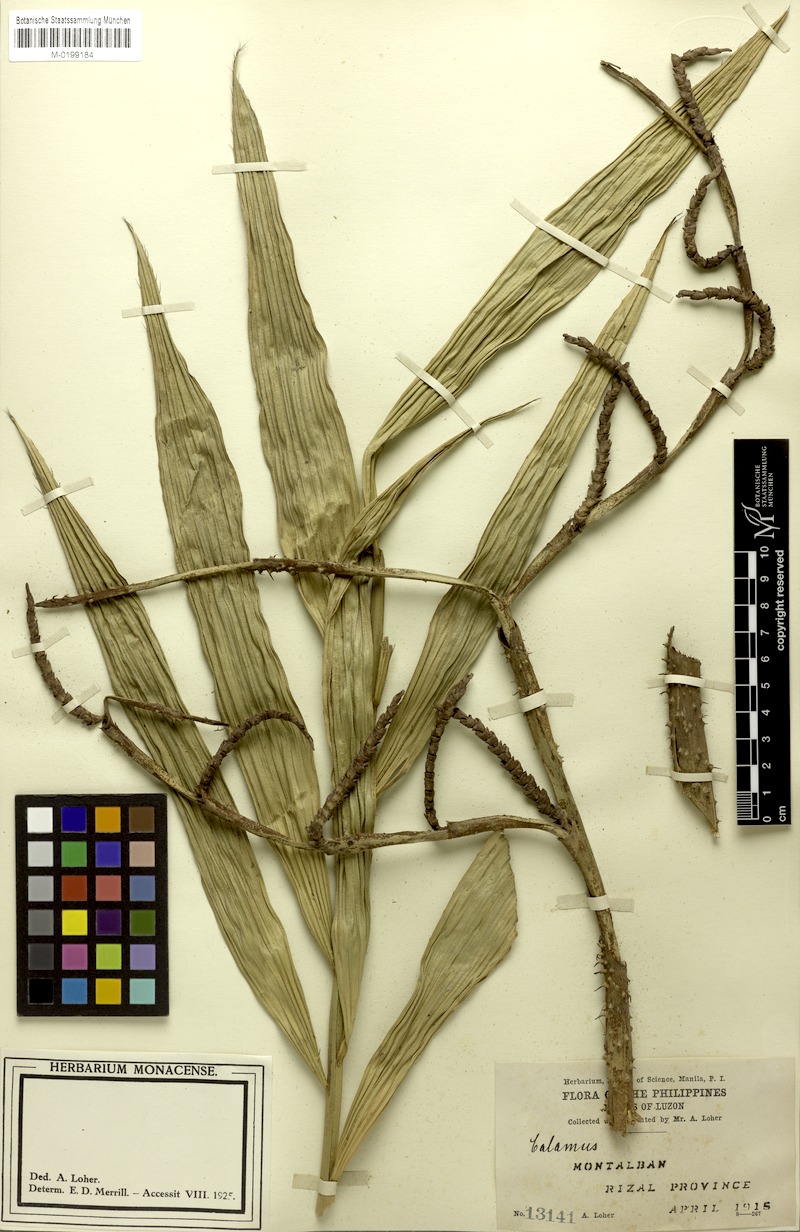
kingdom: Plantae
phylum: Tracheophyta
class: Liliopsida
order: Arecales
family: Arecaceae
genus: Calamus
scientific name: Calamus manillensis
